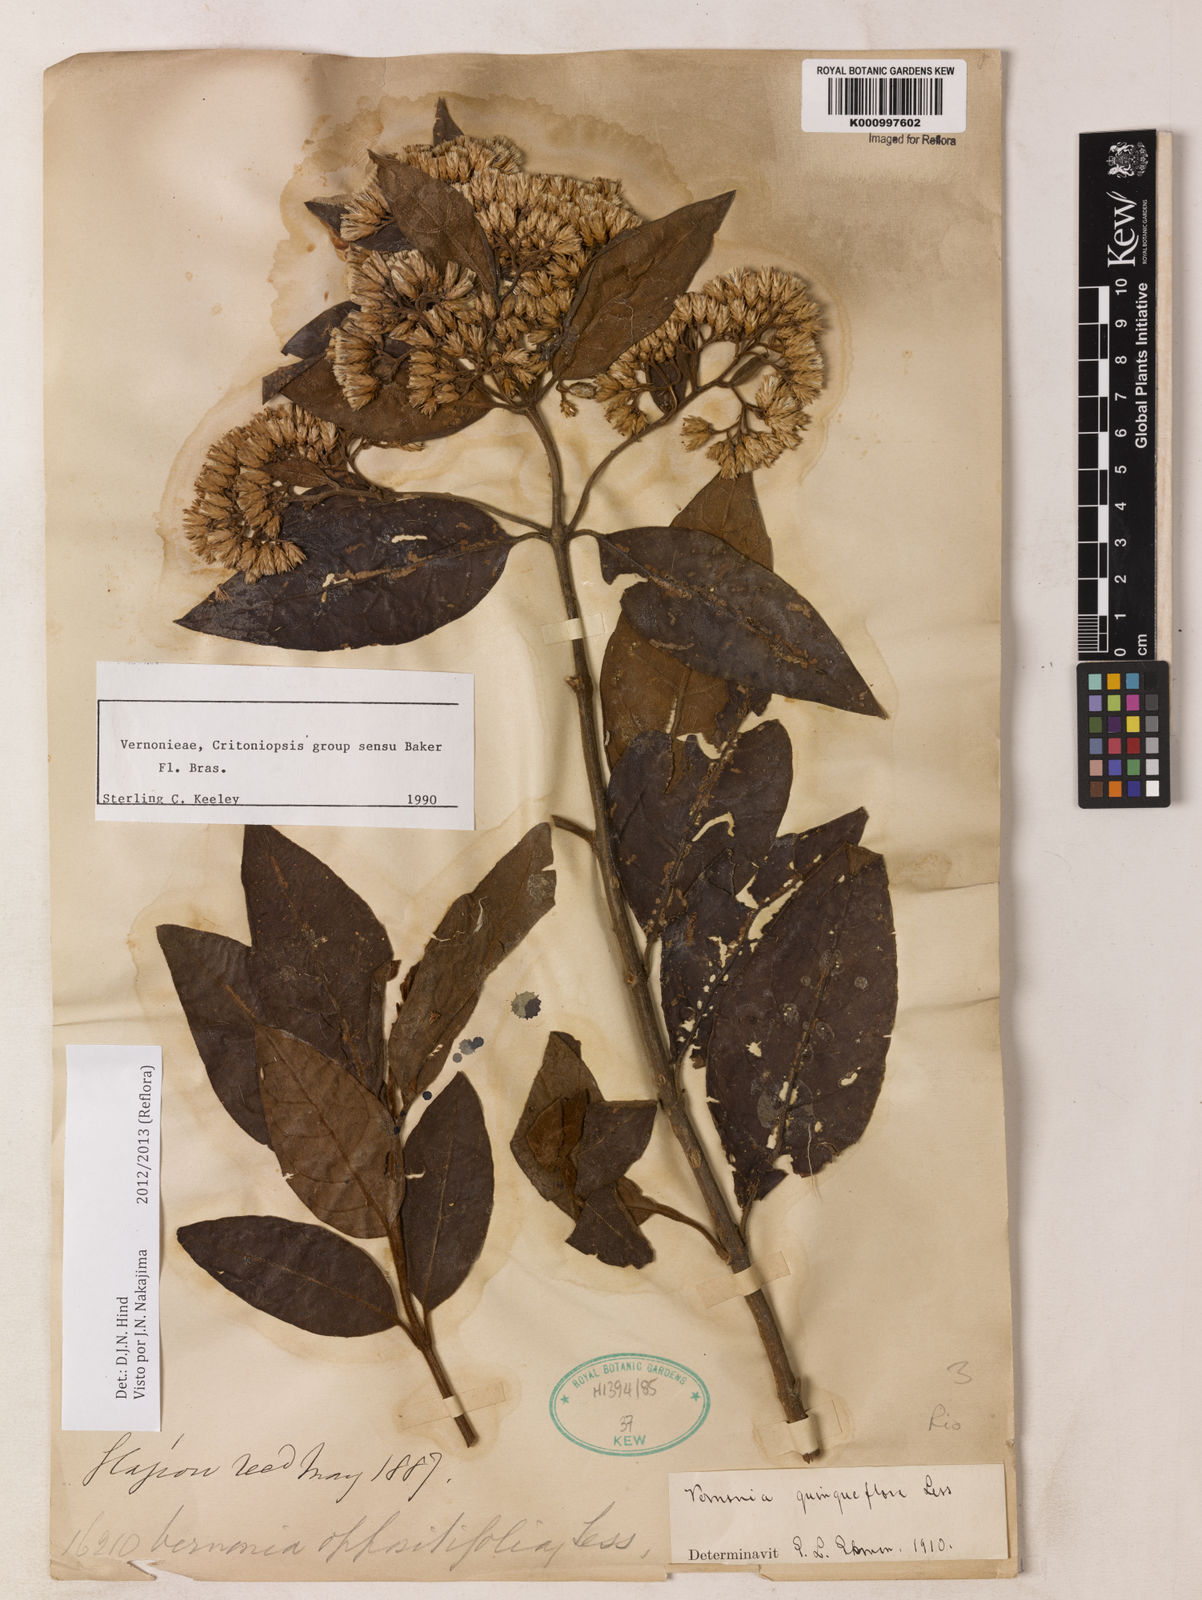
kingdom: Plantae
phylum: Tracheophyta
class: Magnoliopsida
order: Asterales
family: Asteraceae
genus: Critoniopsis
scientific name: Critoniopsis quinqueflora
